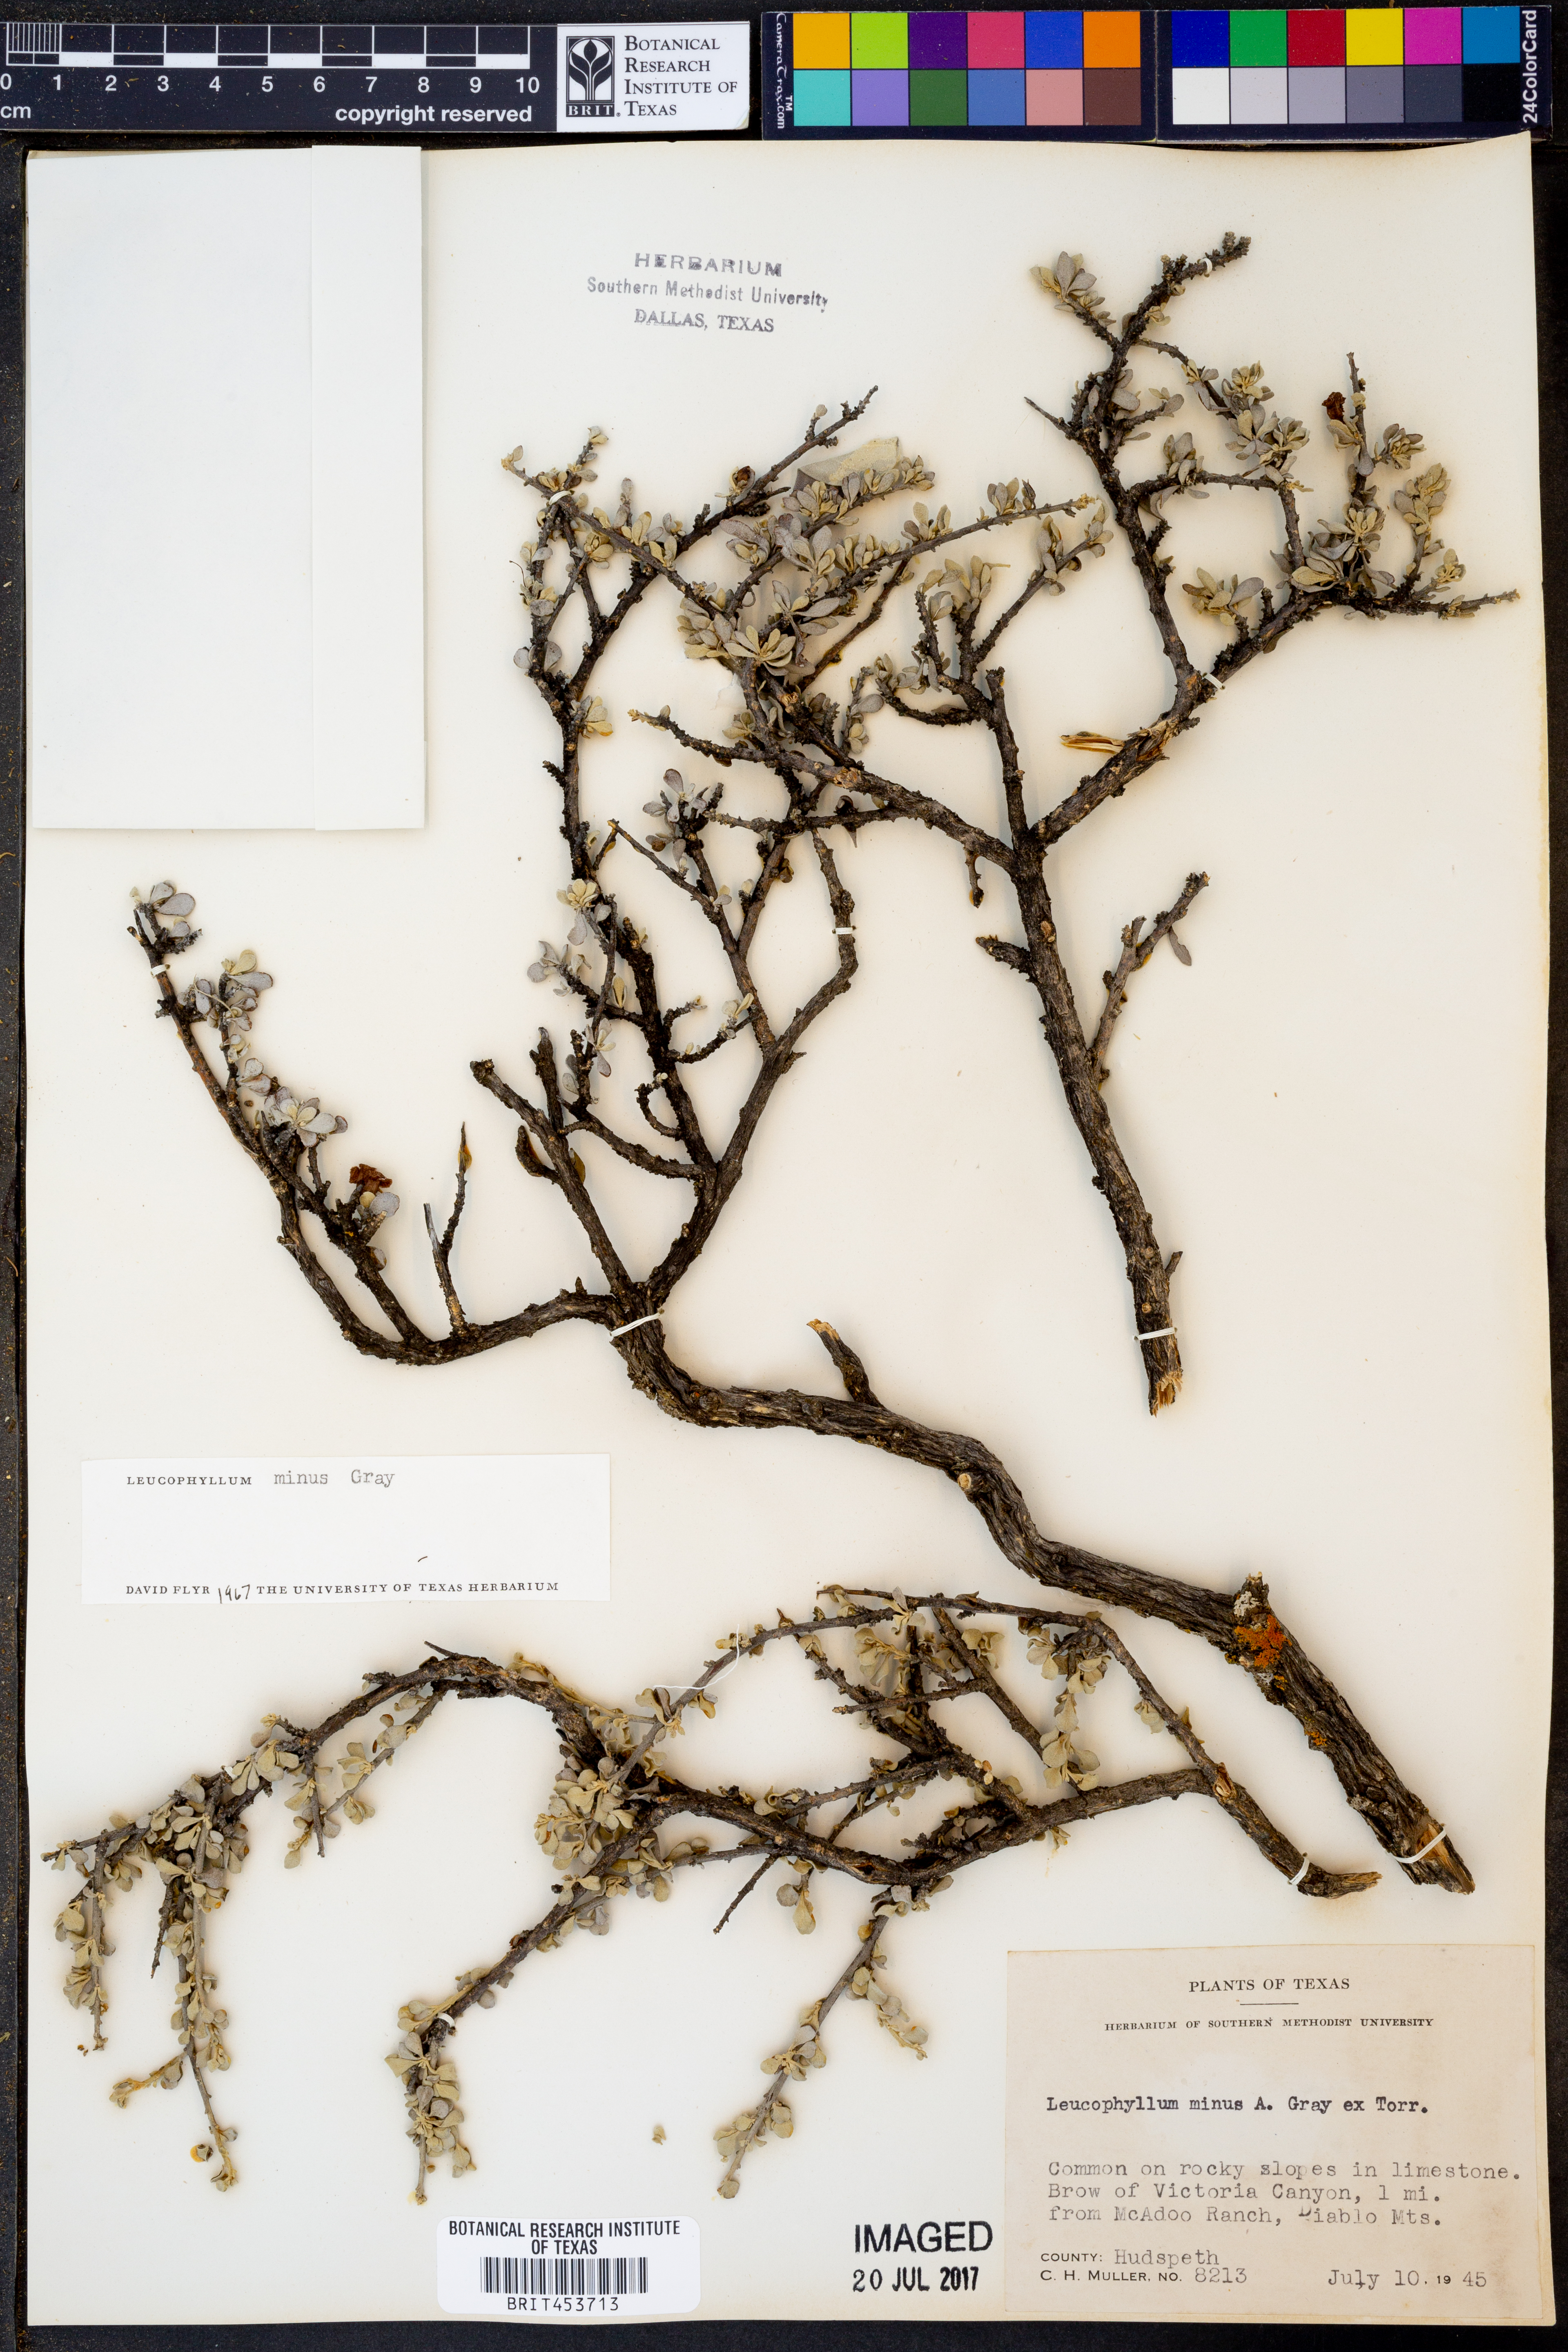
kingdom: Plantae
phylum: Tracheophyta
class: Magnoliopsida
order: Lamiales
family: Scrophulariaceae
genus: Leucophyllum
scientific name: Leucophyllum minus
